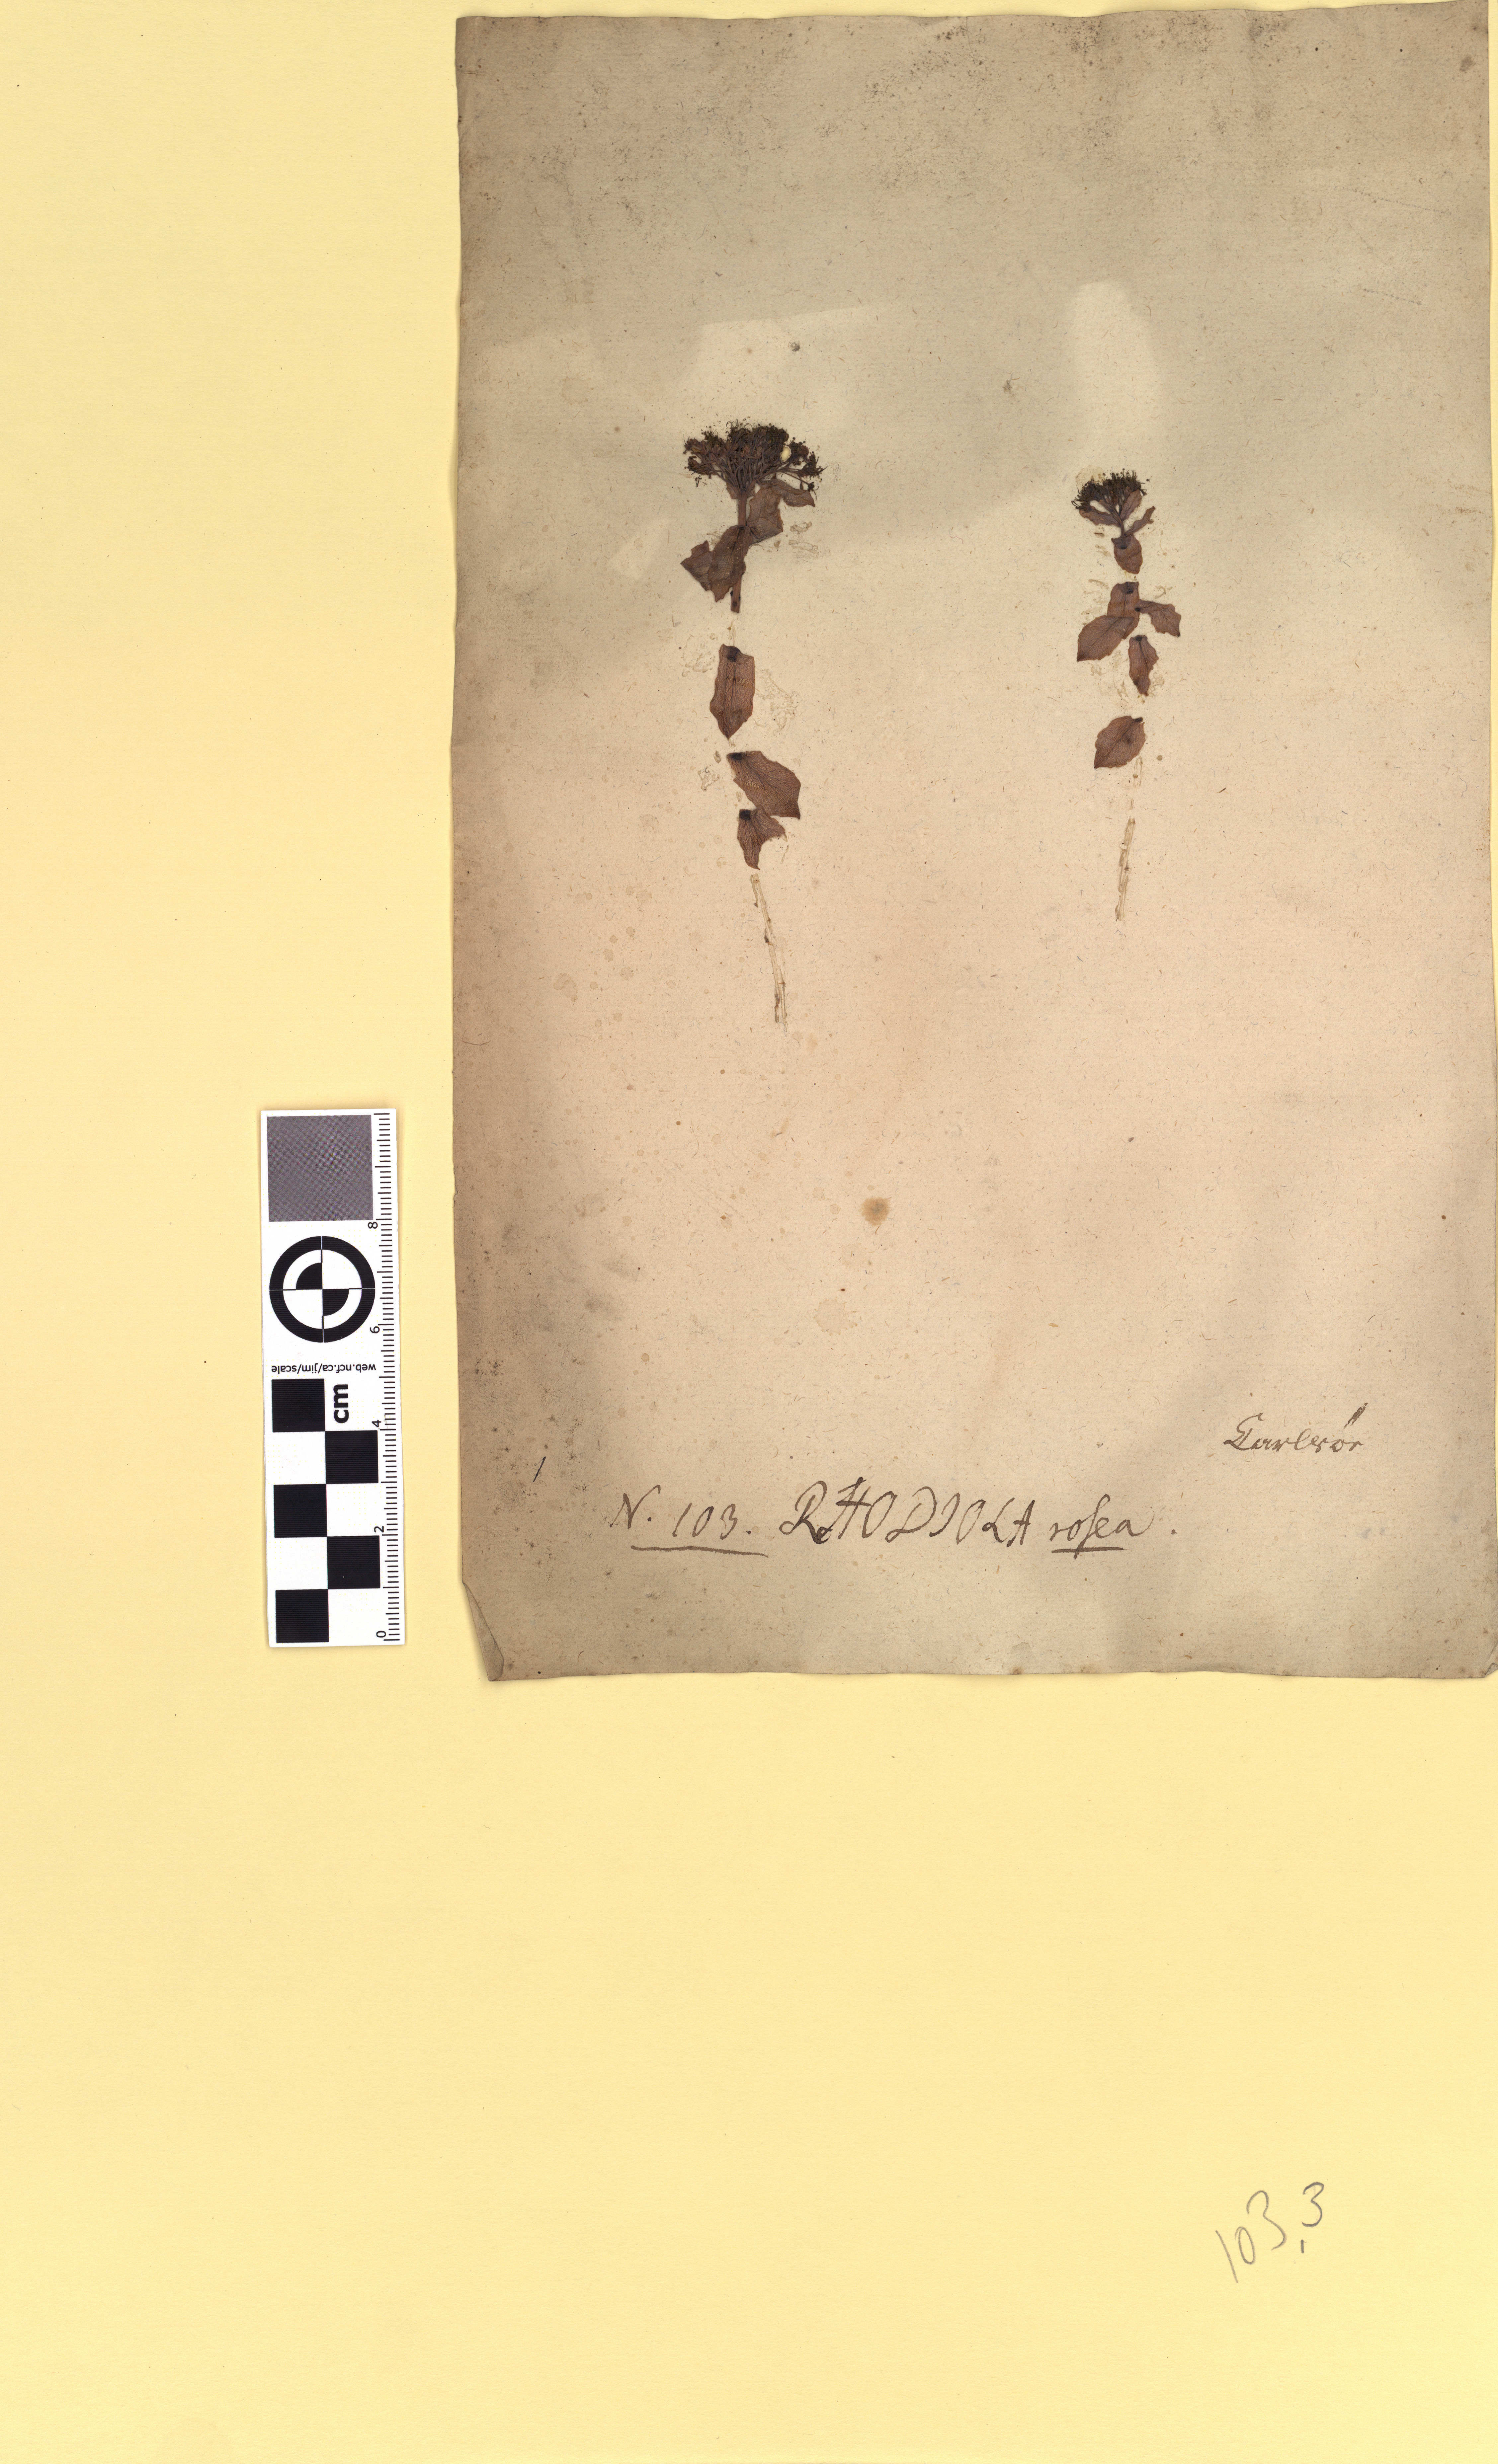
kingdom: Plantae
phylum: Tracheophyta
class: Magnoliopsida
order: Saxifragales
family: Crassulaceae
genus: Rhodiola
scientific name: Rhodiola rosea
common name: Roseroot
